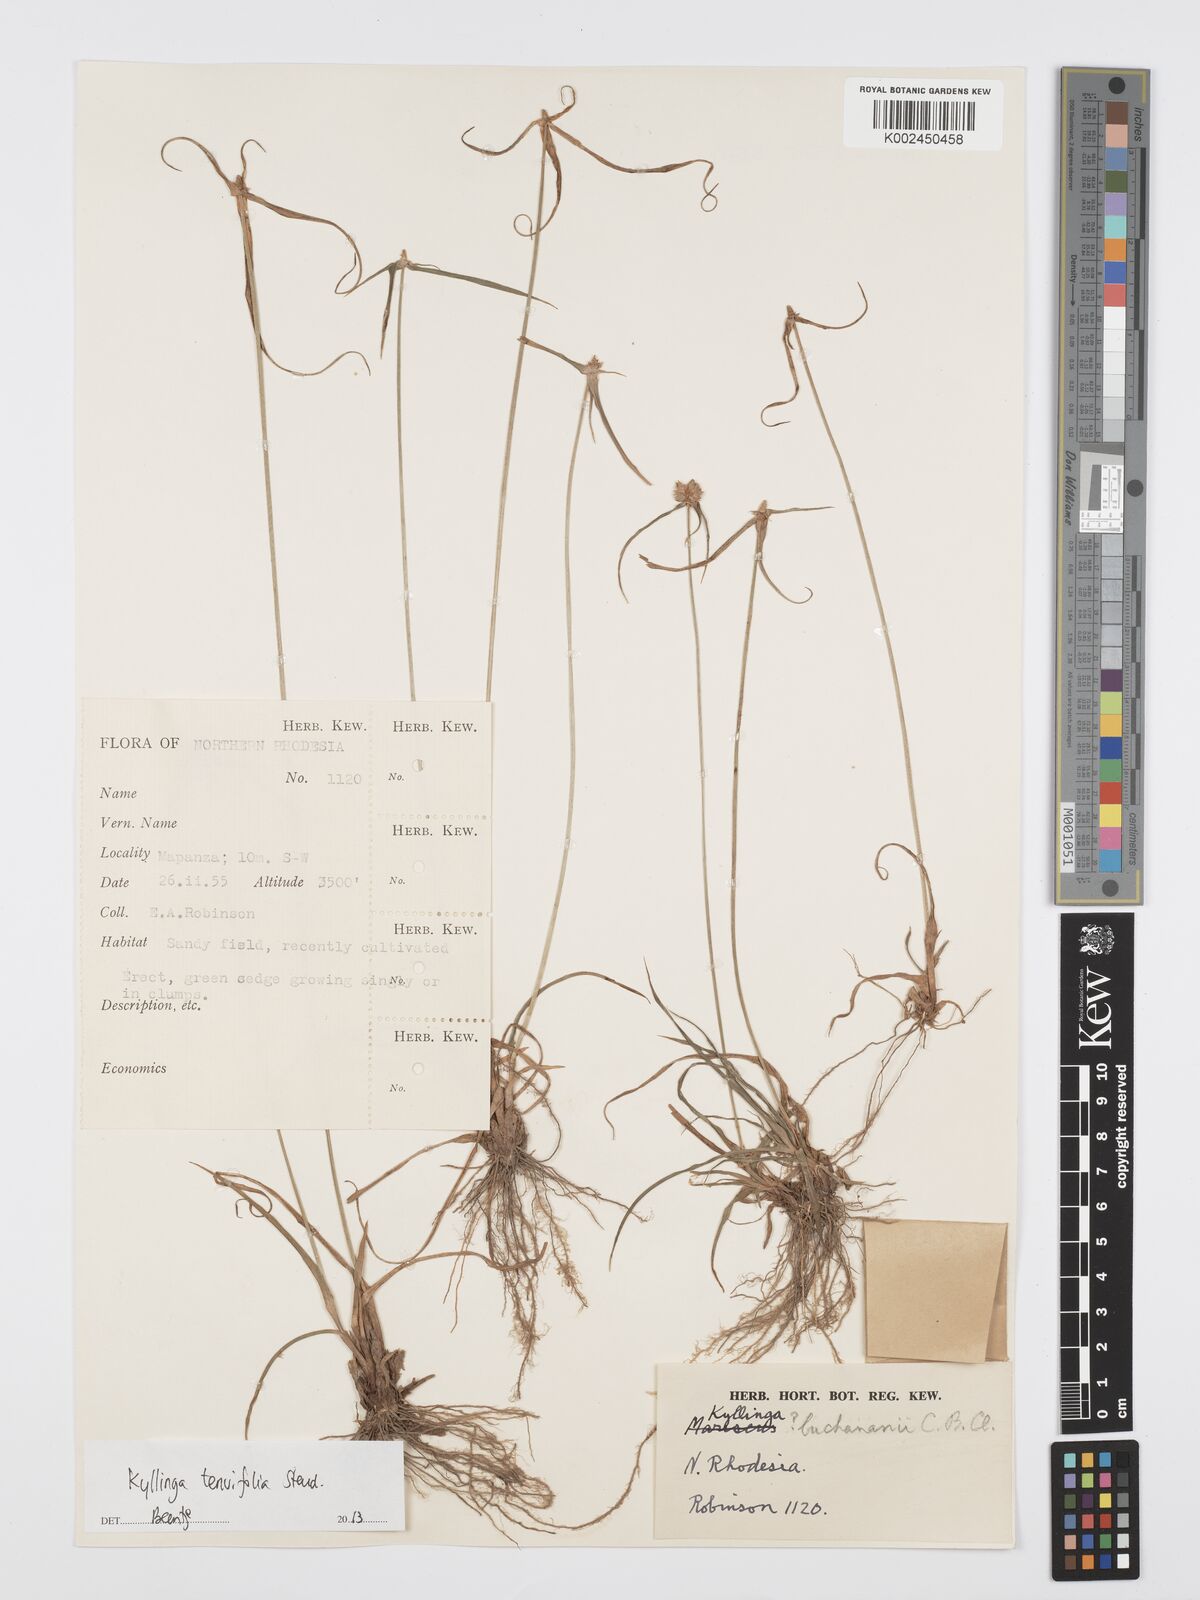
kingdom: Plantae
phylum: Tracheophyta
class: Liliopsida
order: Poales
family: Cyperaceae
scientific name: Cyperaceae
